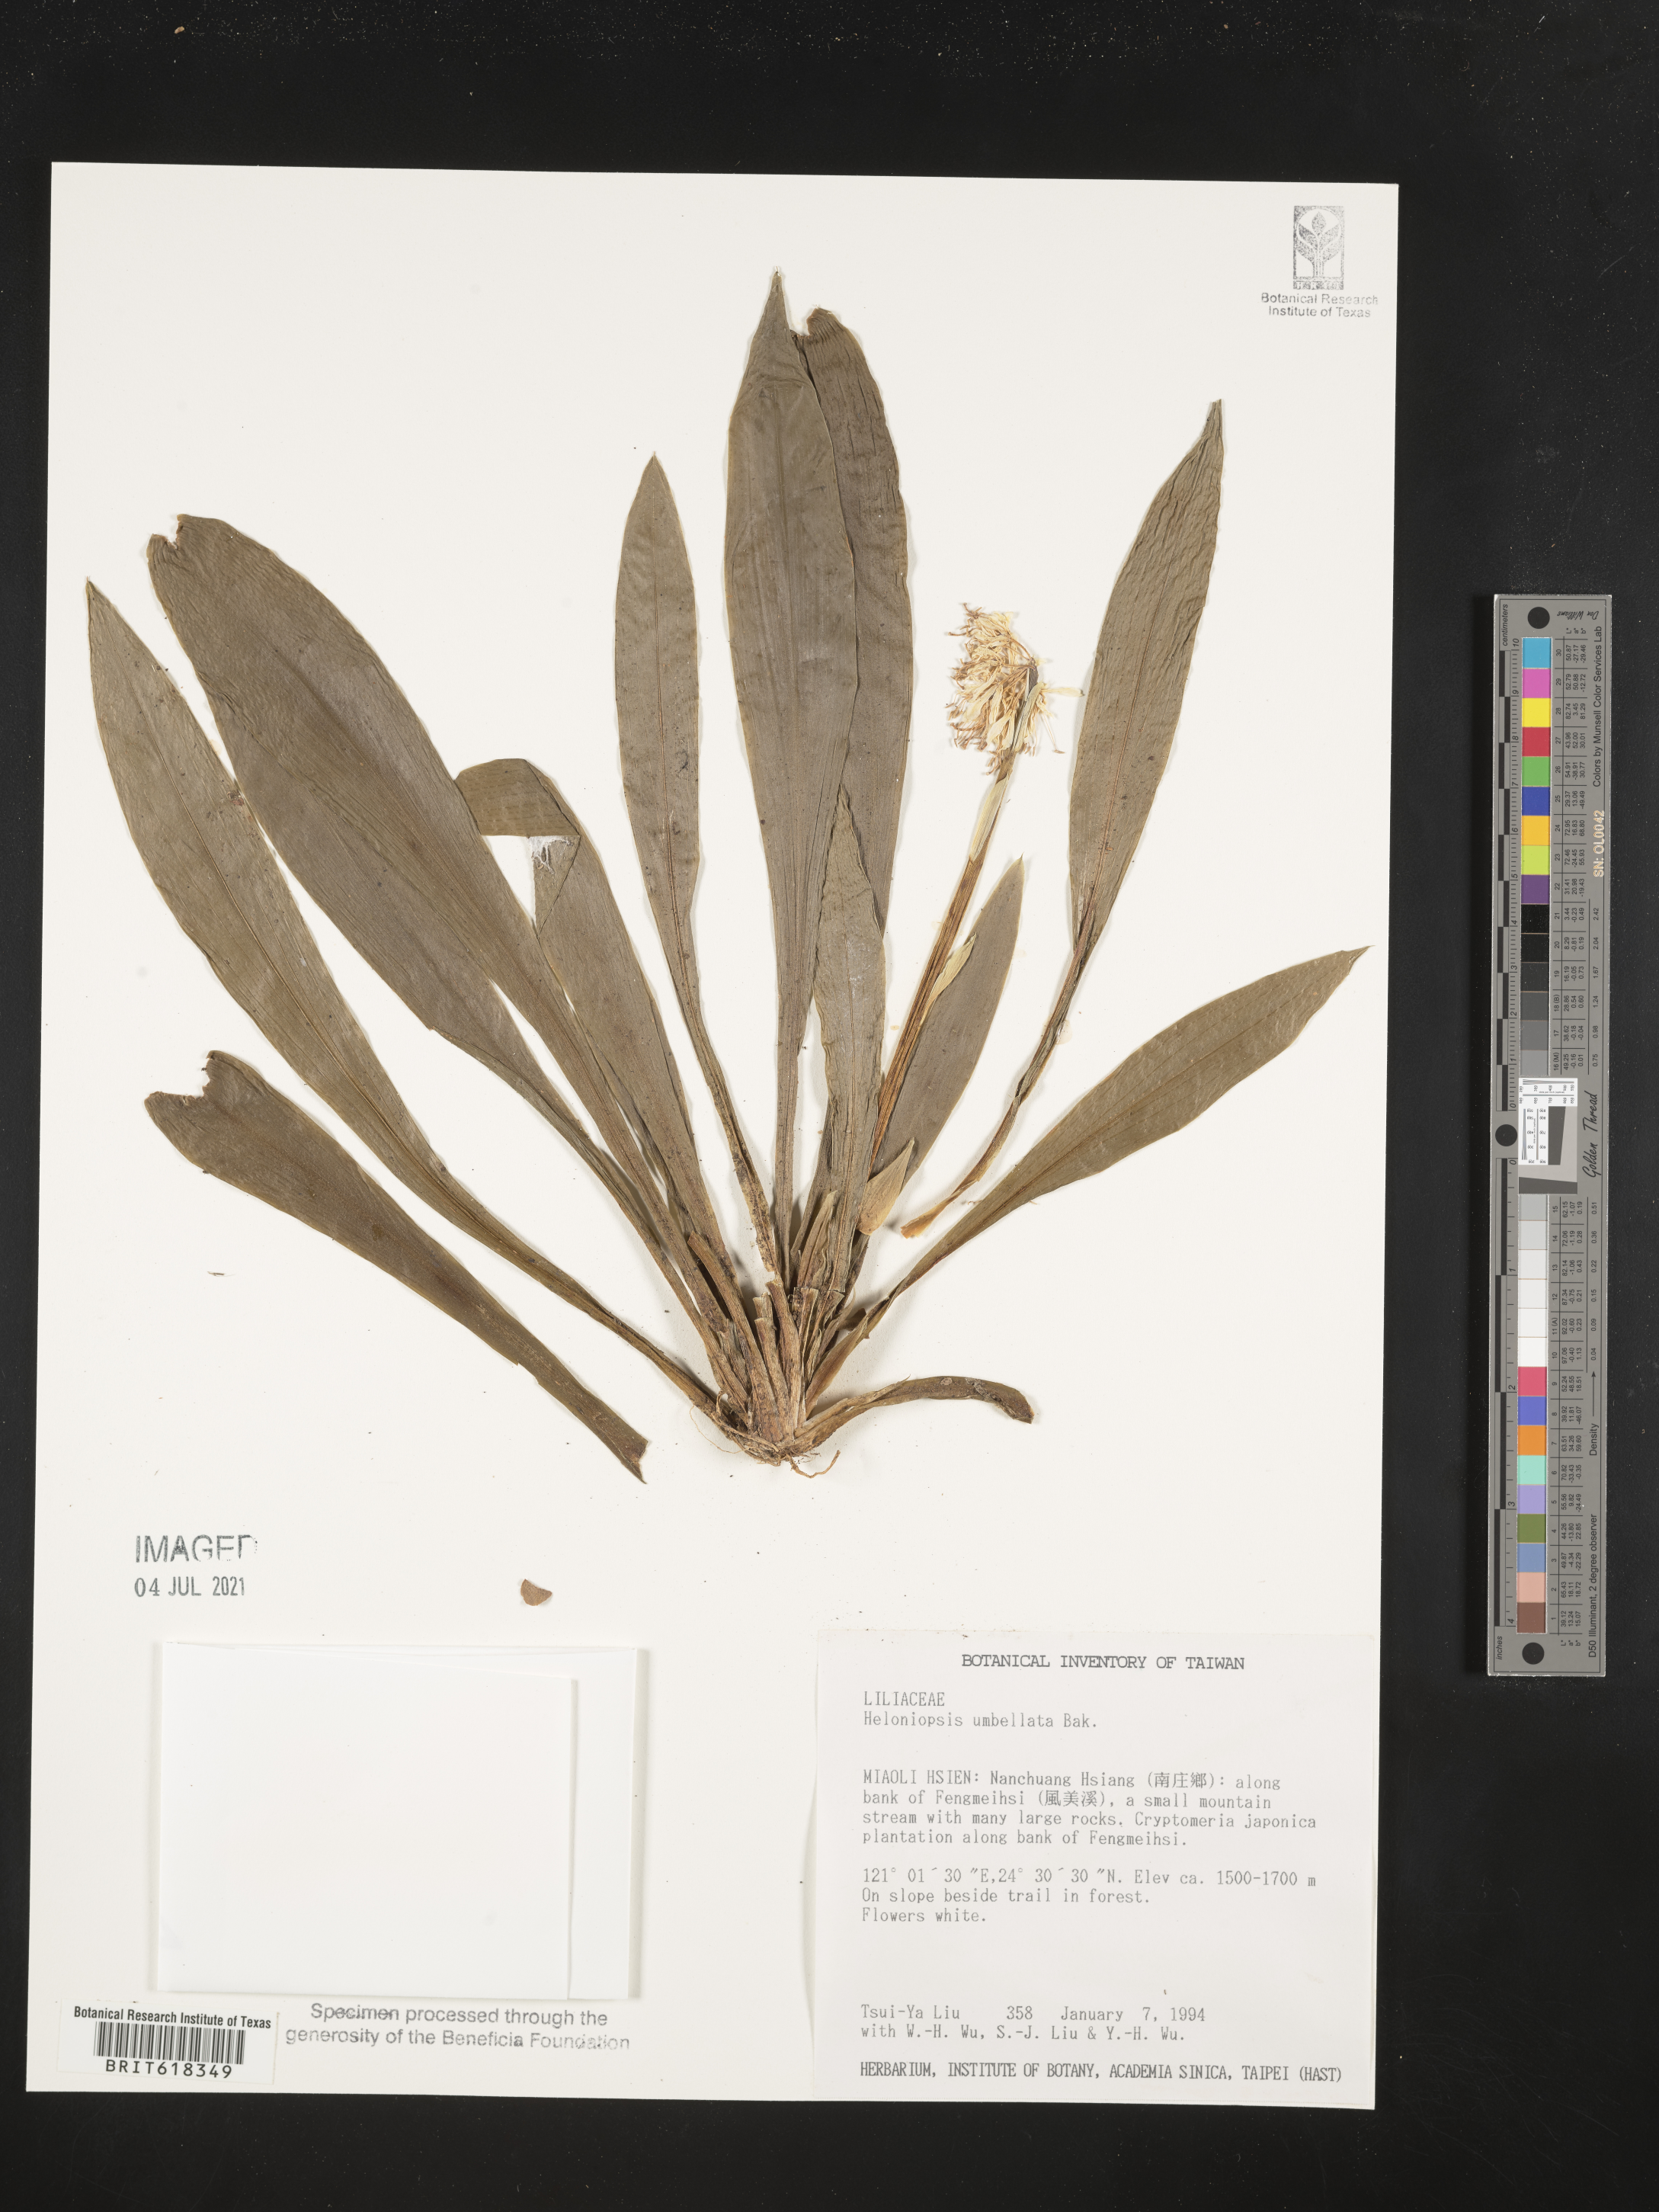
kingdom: Plantae
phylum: Tracheophyta
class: Liliopsida
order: Liliales
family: Melanthiaceae
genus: Helonias
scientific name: Helonias umbellata
